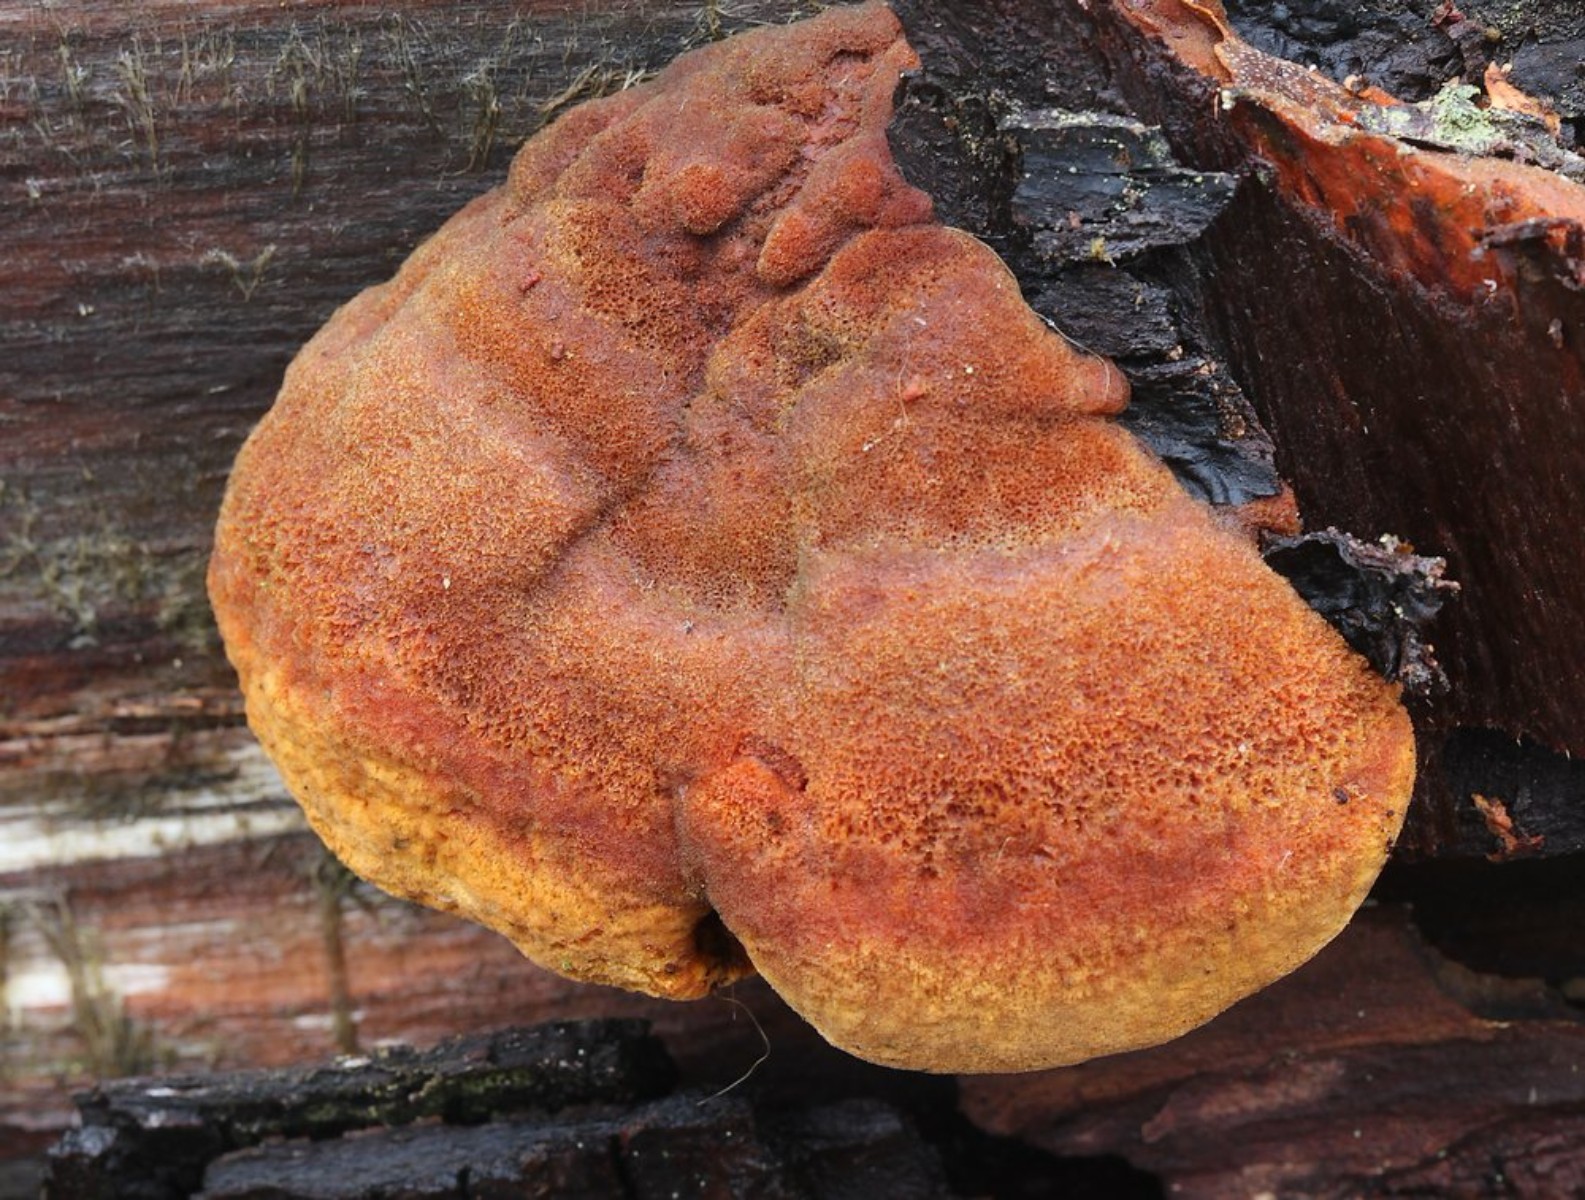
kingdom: Fungi
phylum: Basidiomycota
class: Agaricomycetes
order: Gloeophyllales
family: Gloeophyllaceae
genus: Gloeophyllum
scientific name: Gloeophyllum odoratum
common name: duftende korkhat
